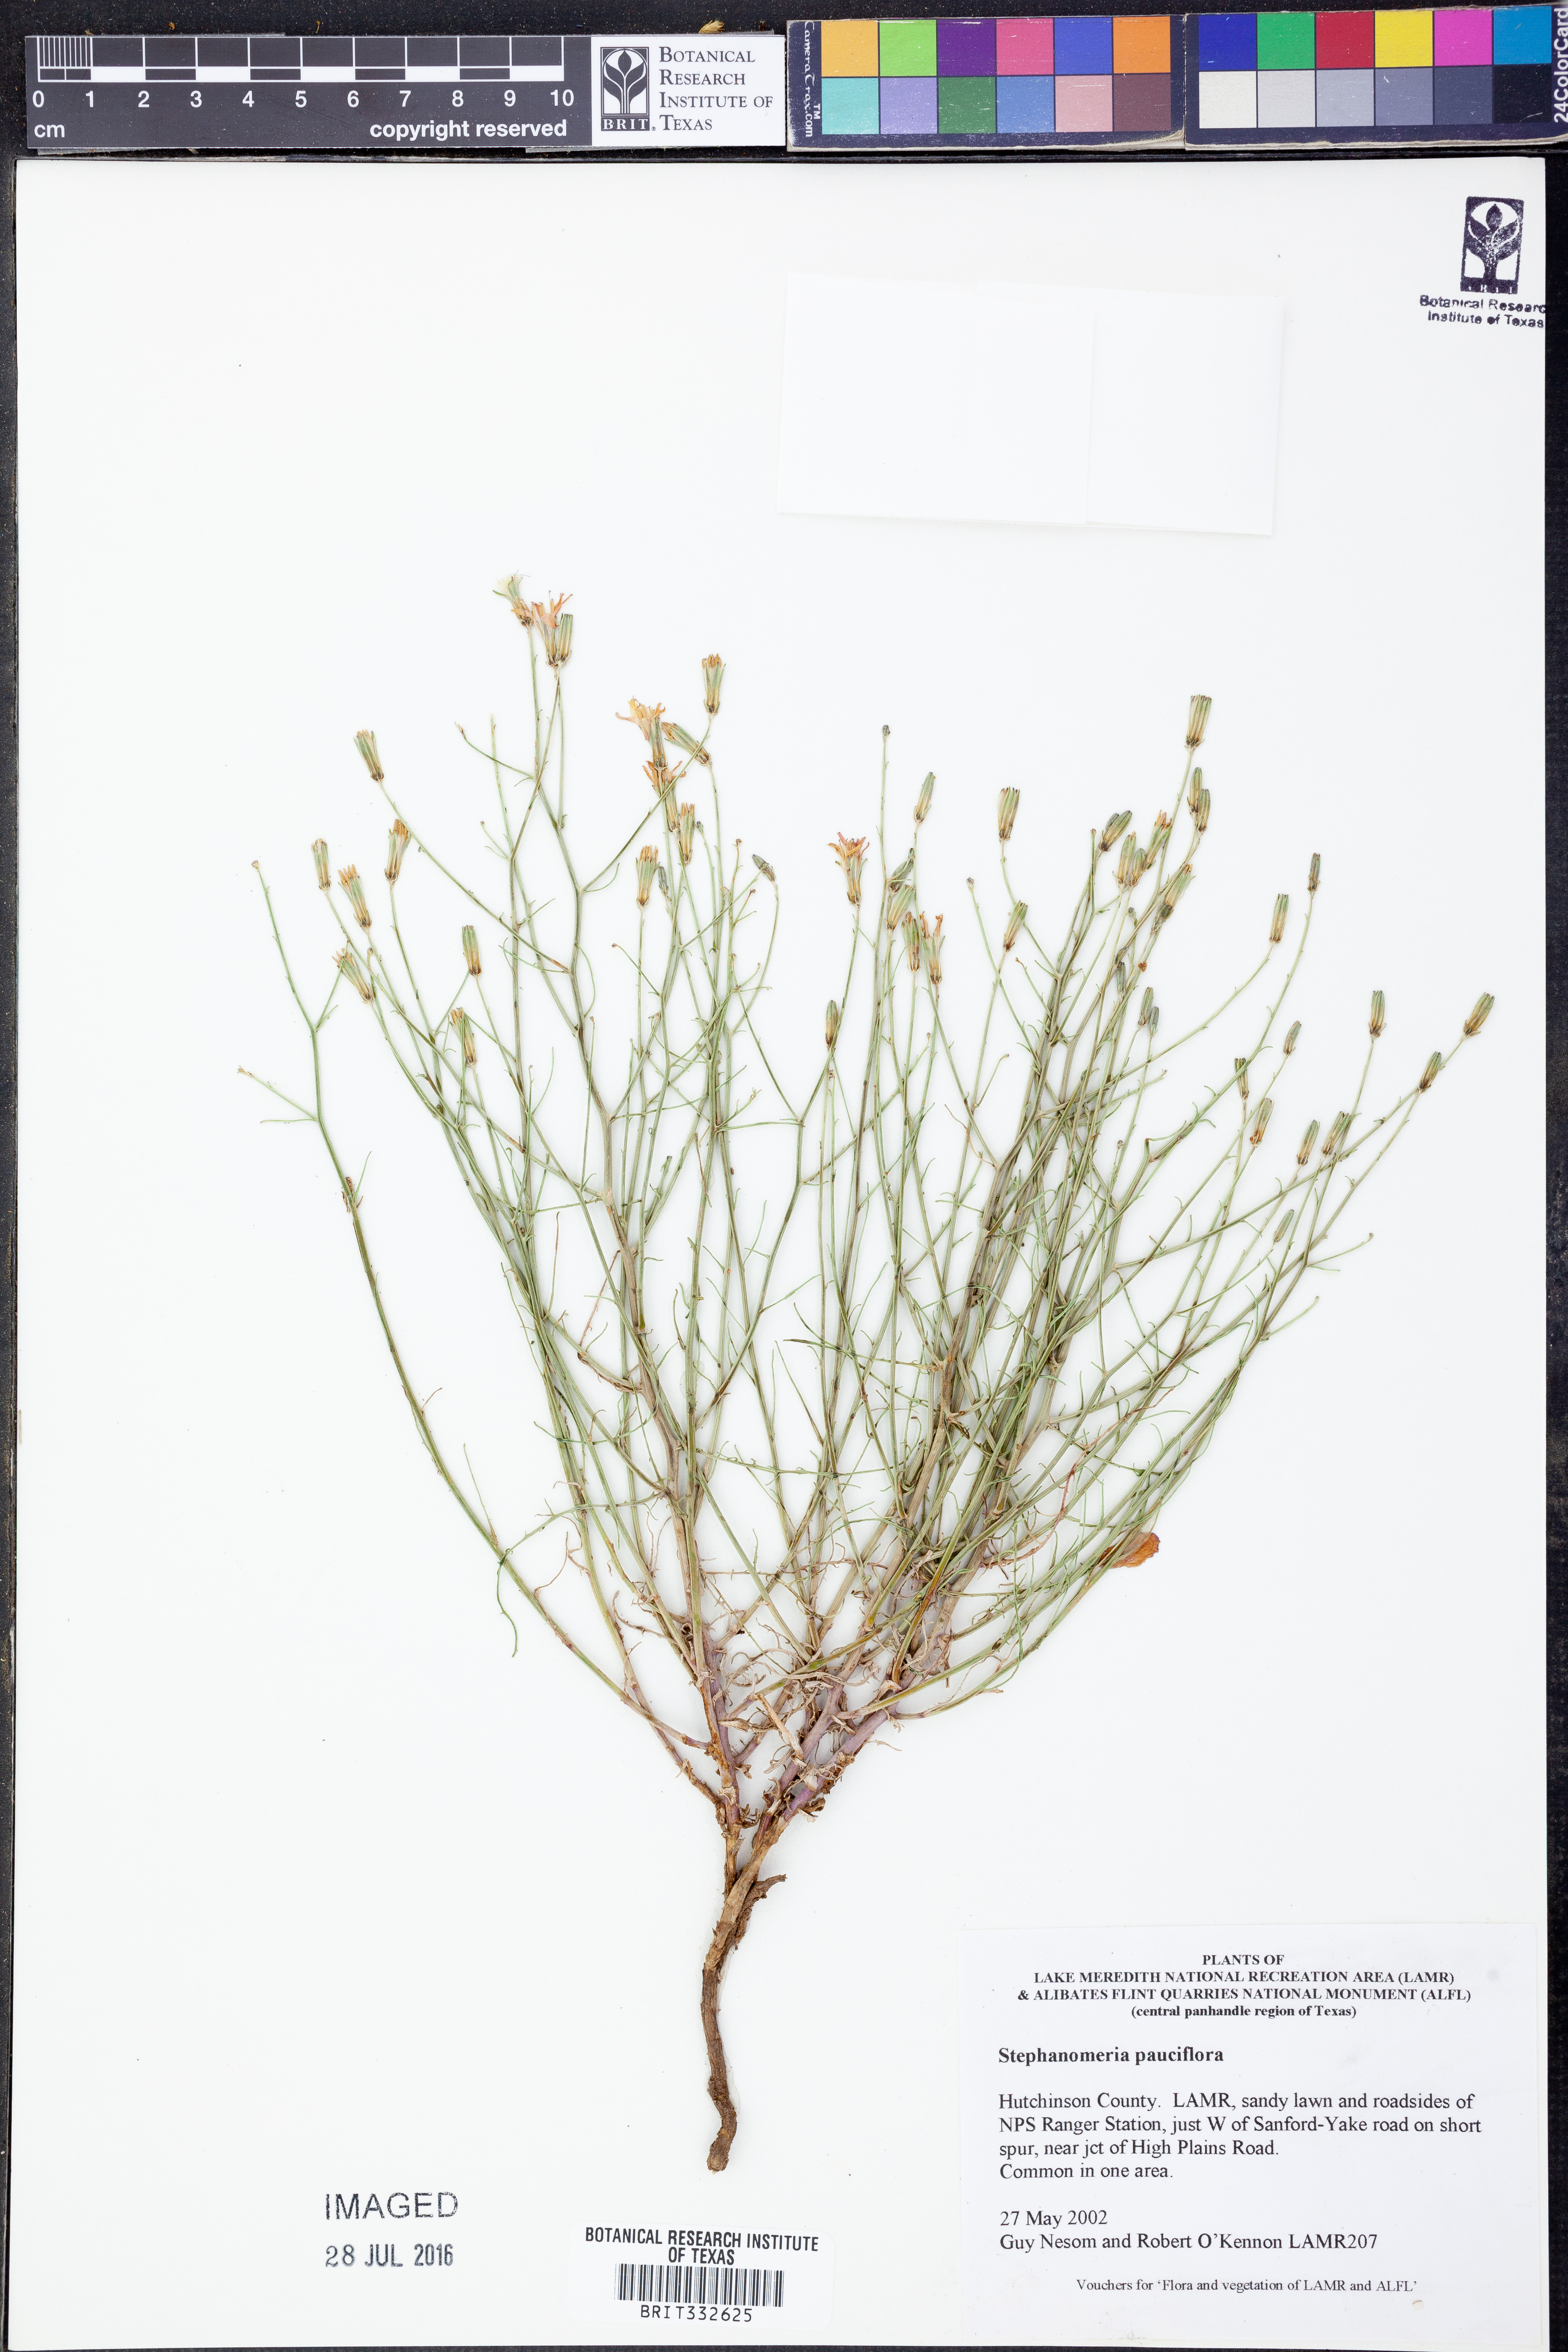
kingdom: Plantae
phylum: Tracheophyta
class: Magnoliopsida
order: Asterales
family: Asteraceae
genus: Stephanomeria
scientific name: Stephanomeria pauciflora
